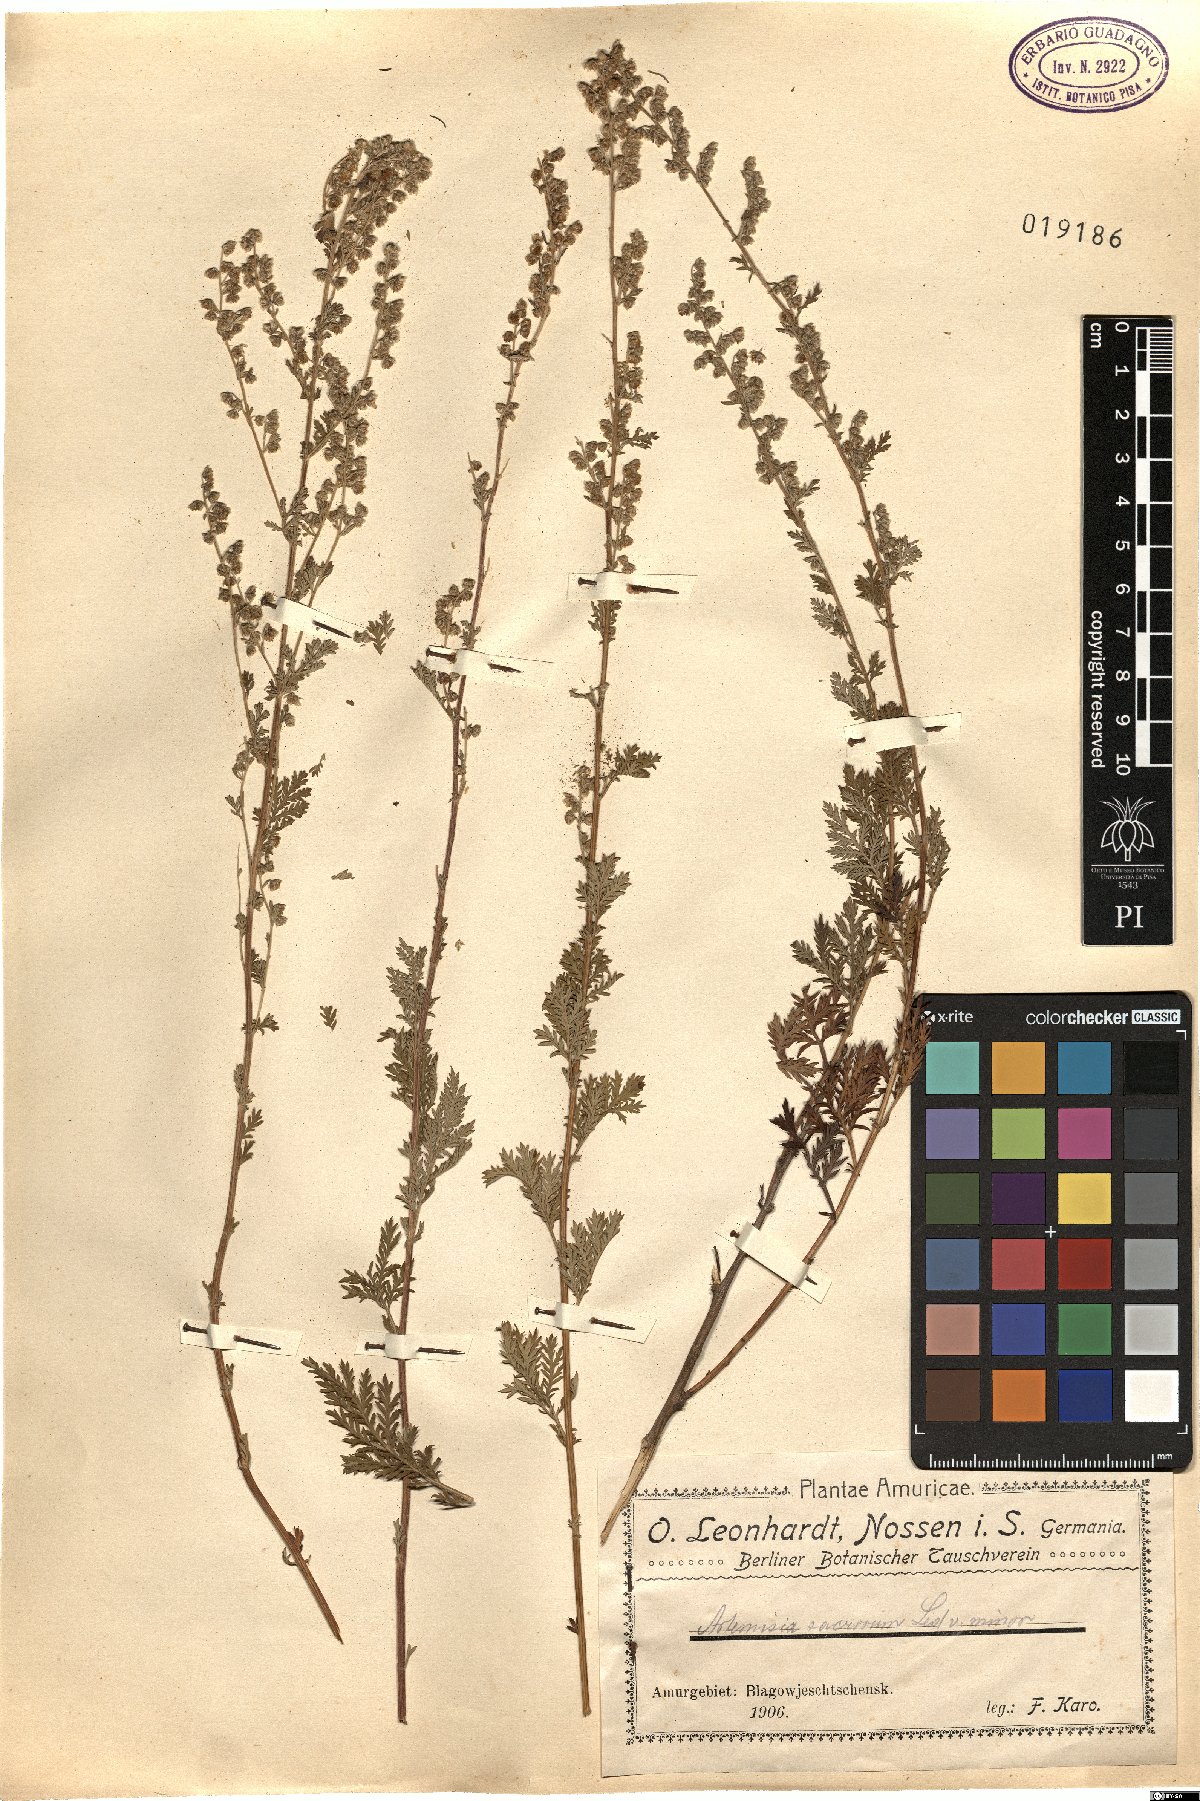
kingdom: Plantae
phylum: Tracheophyta
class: Magnoliopsida
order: Asterales
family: Asteraceae
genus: Artemisia
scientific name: Artemisia gmelinii
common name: Gmelin's wormwood
